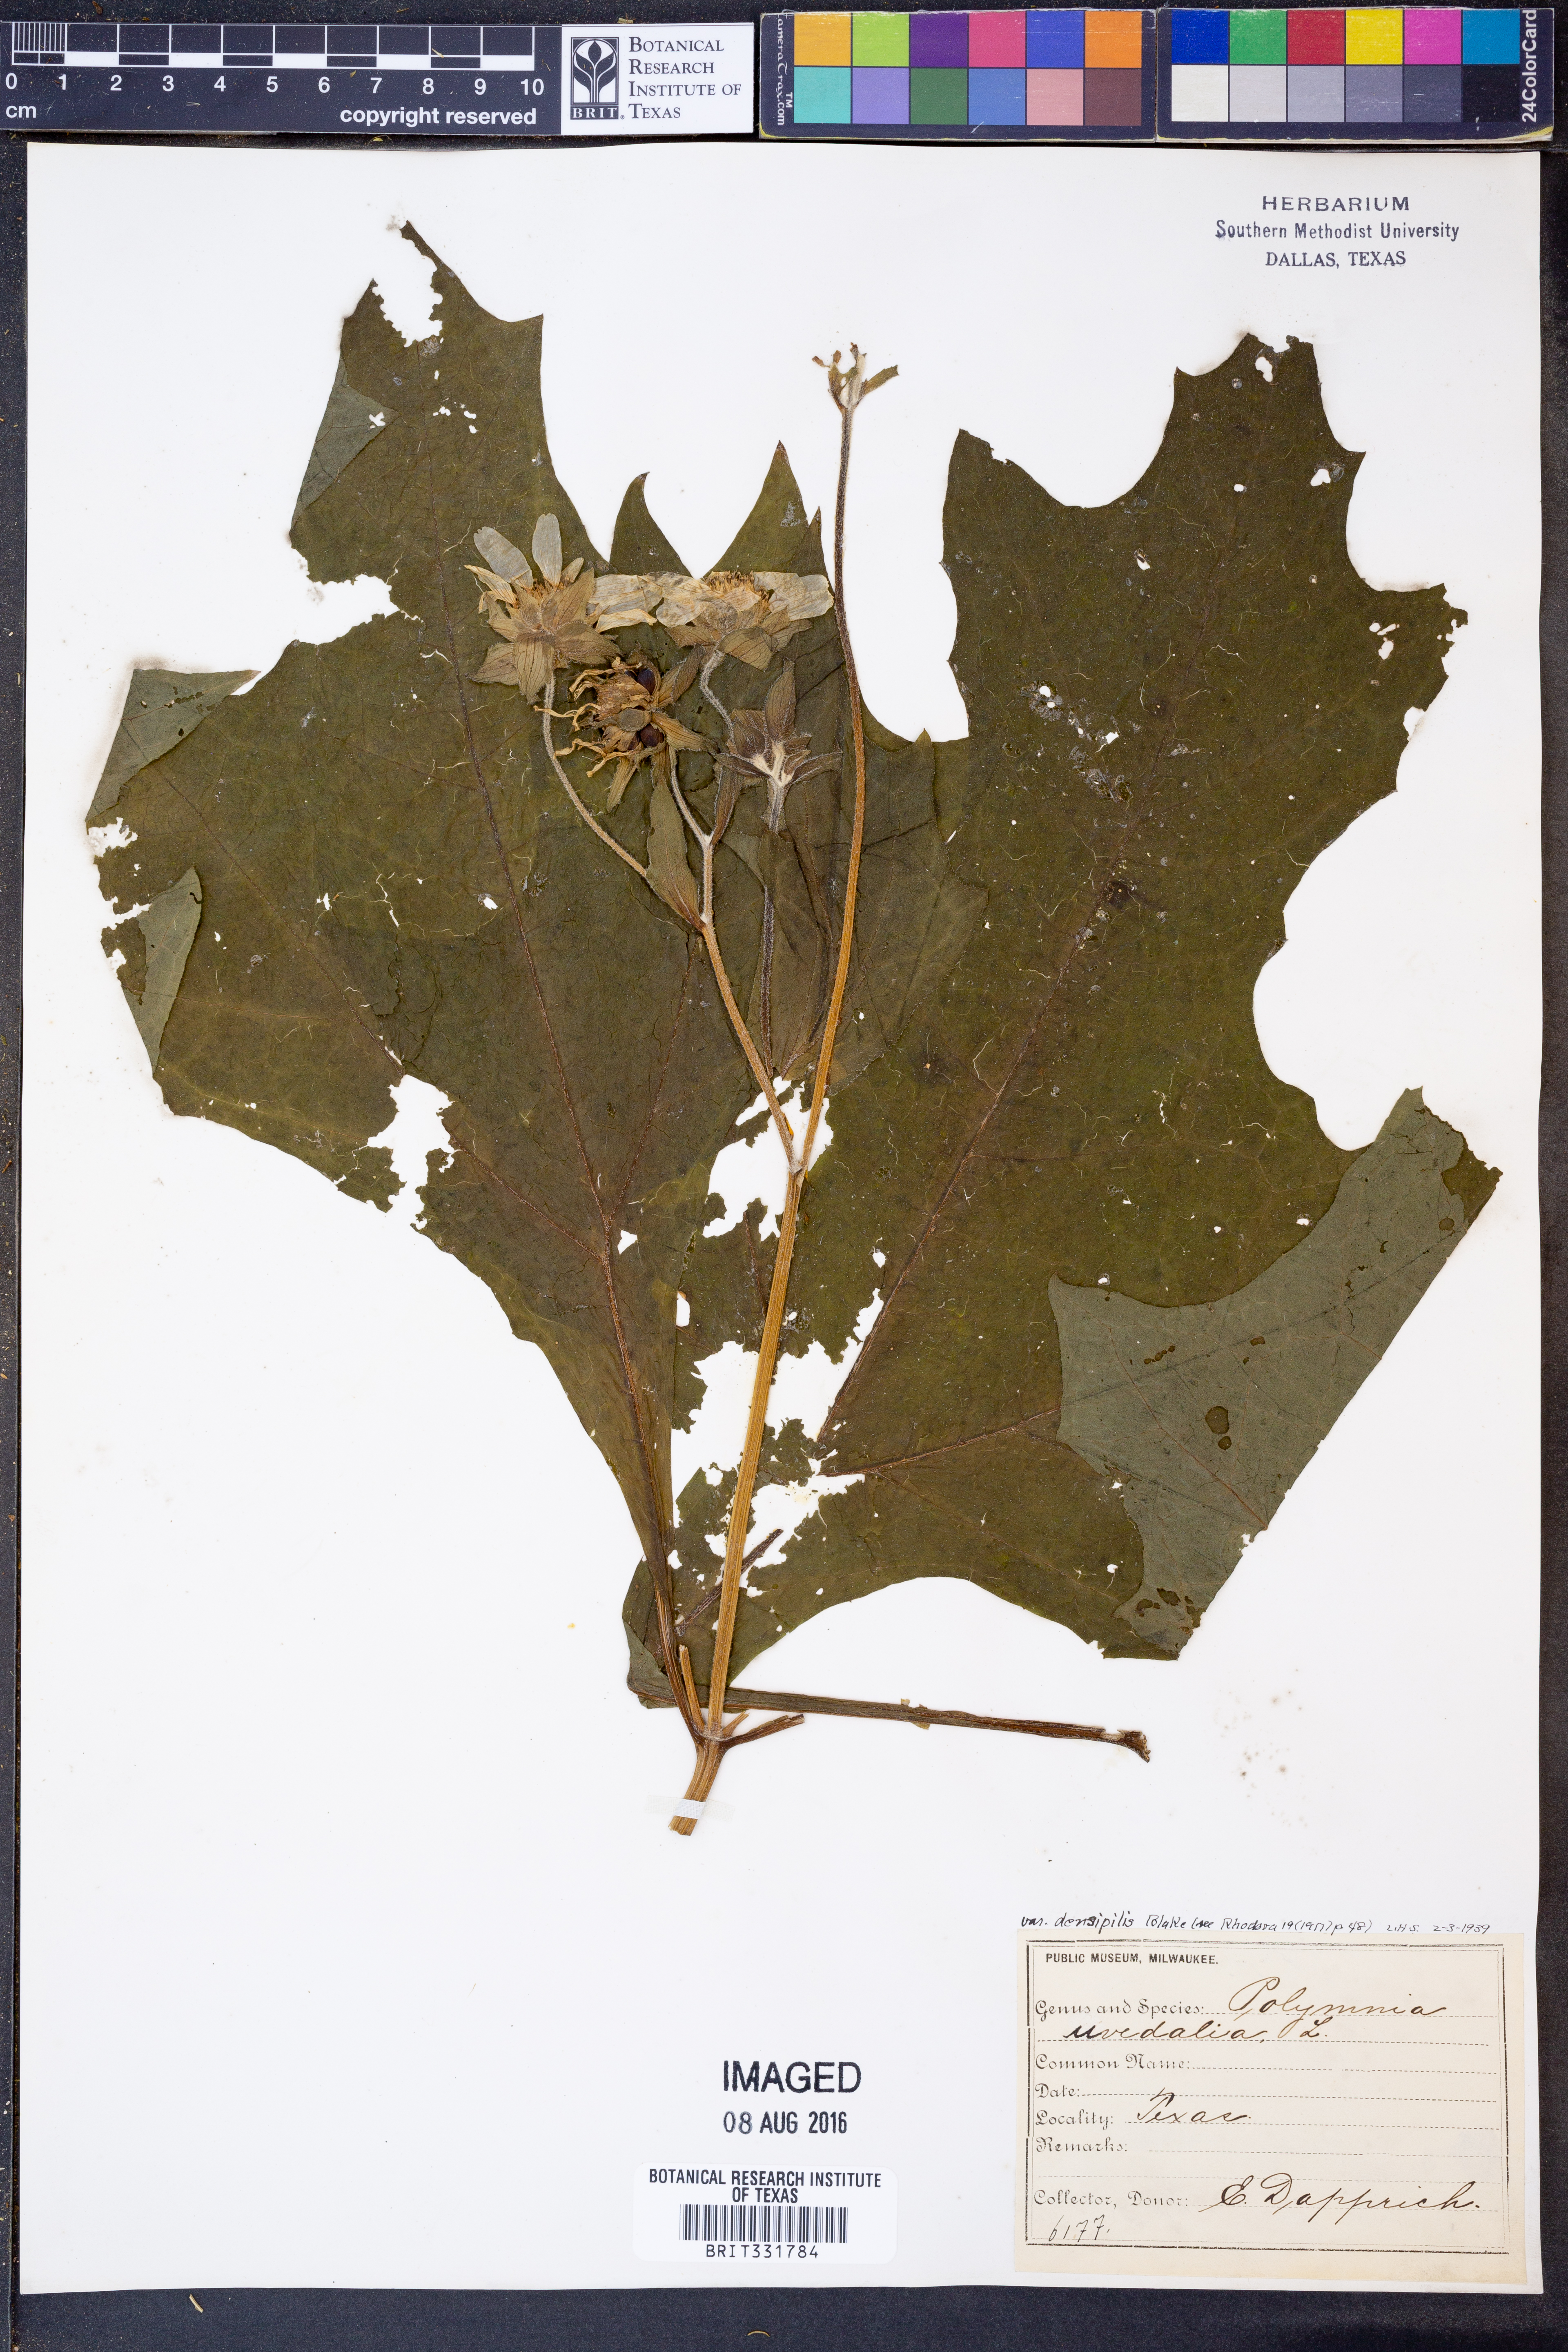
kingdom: Plantae
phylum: Tracheophyta
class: Magnoliopsida
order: Asterales
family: Asteraceae
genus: Smallanthus
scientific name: Smallanthus uvedalia
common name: Bear's-foot
